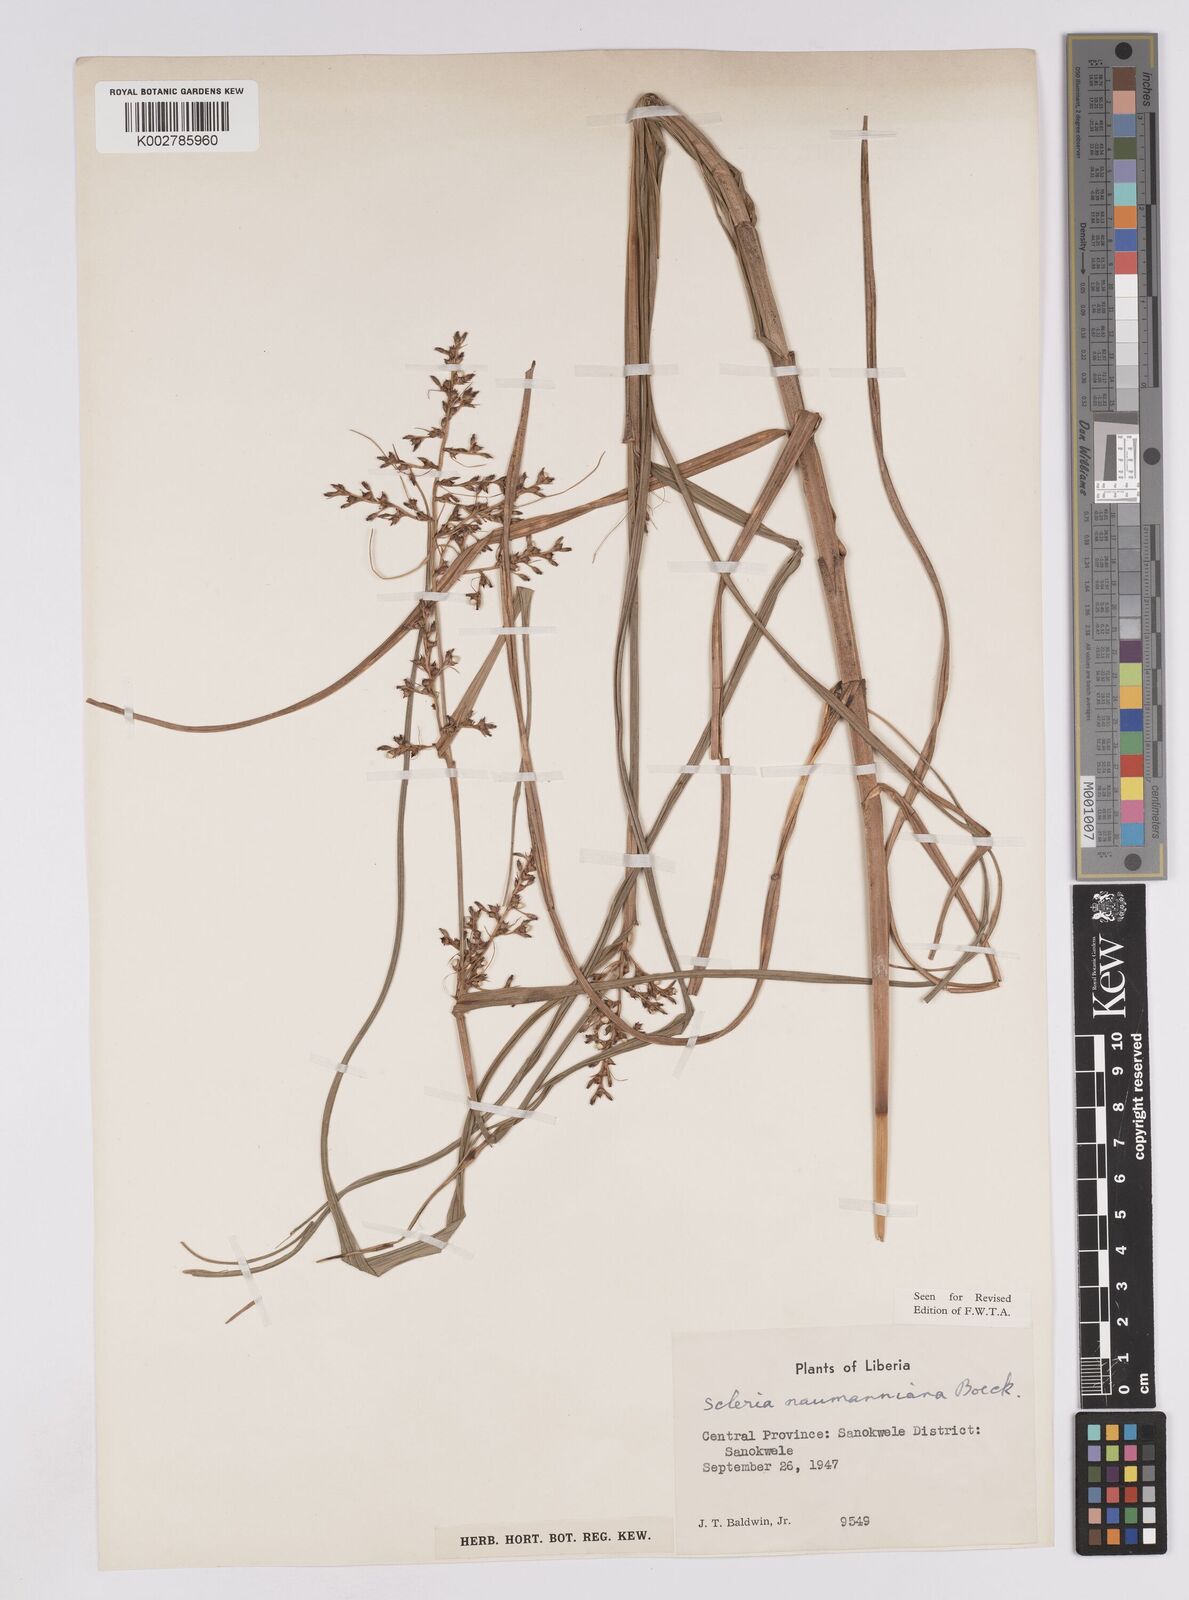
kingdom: Plantae
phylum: Tracheophyta
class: Liliopsida
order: Poales
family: Cyperaceae
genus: Scleria
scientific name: Scleria naumanniana
